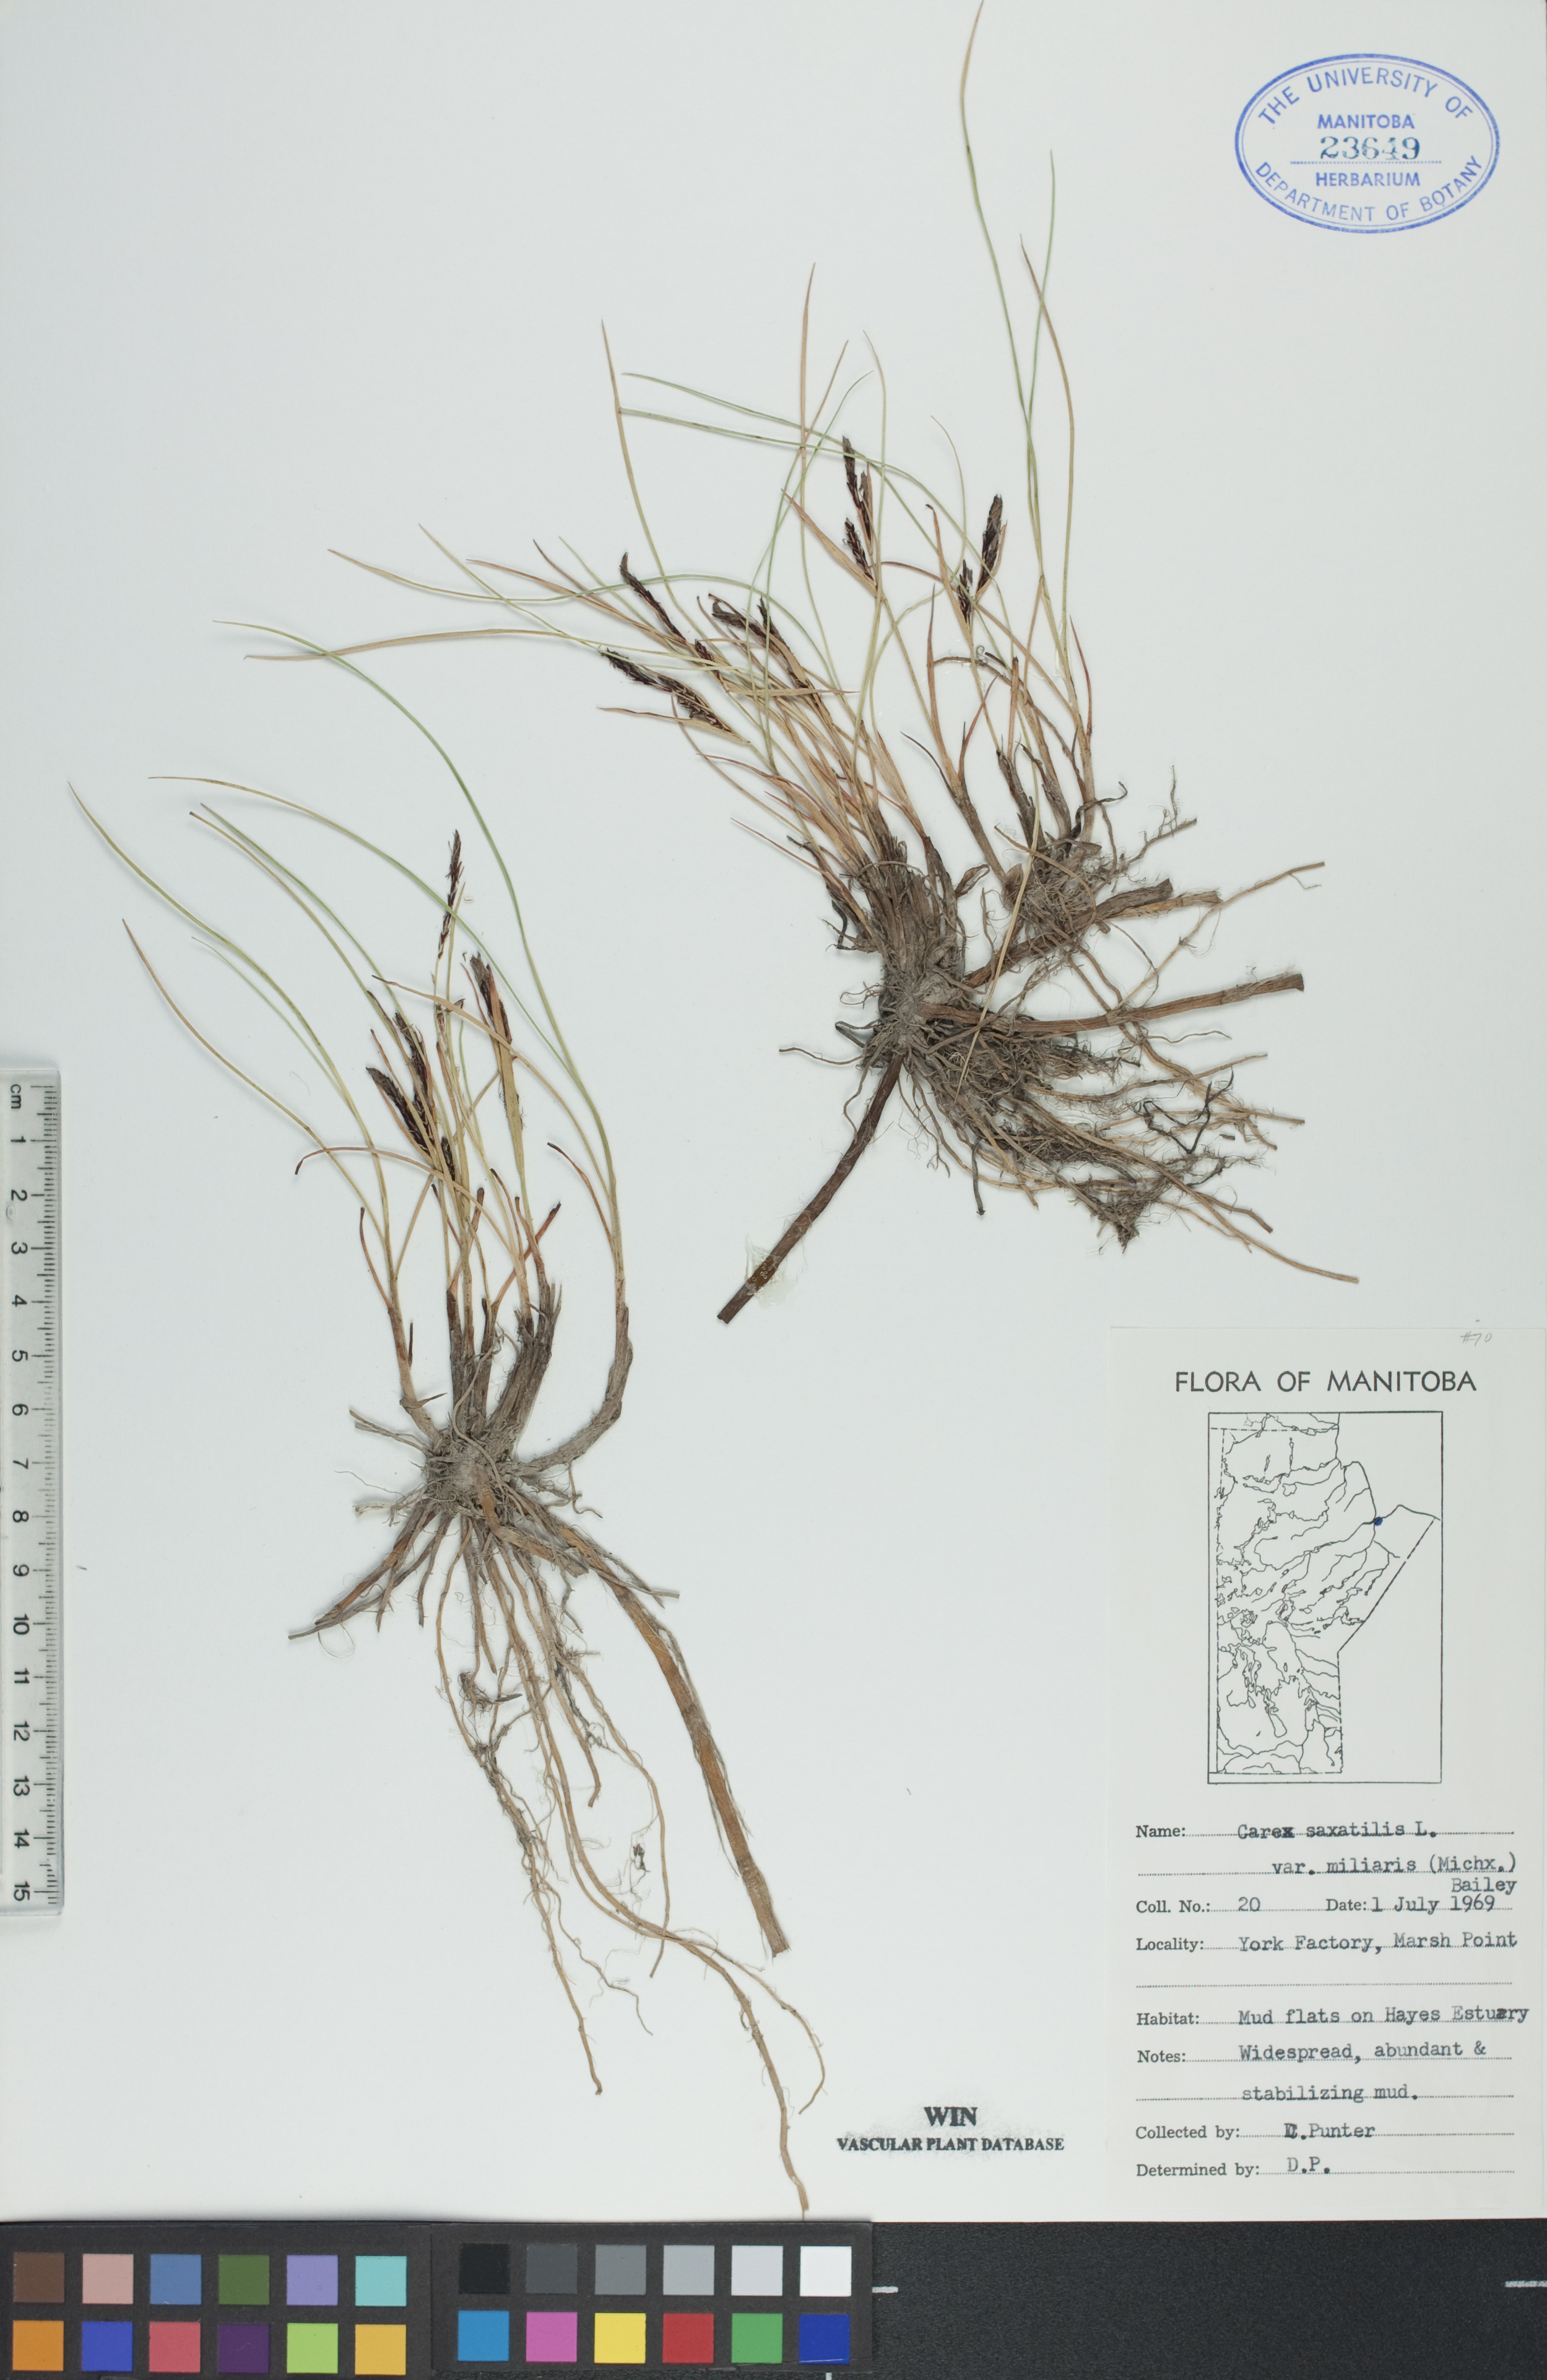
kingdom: Plantae
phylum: Tracheophyta
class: Liliopsida
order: Poales
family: Cyperaceae
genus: Carex
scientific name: Carex miliaris
